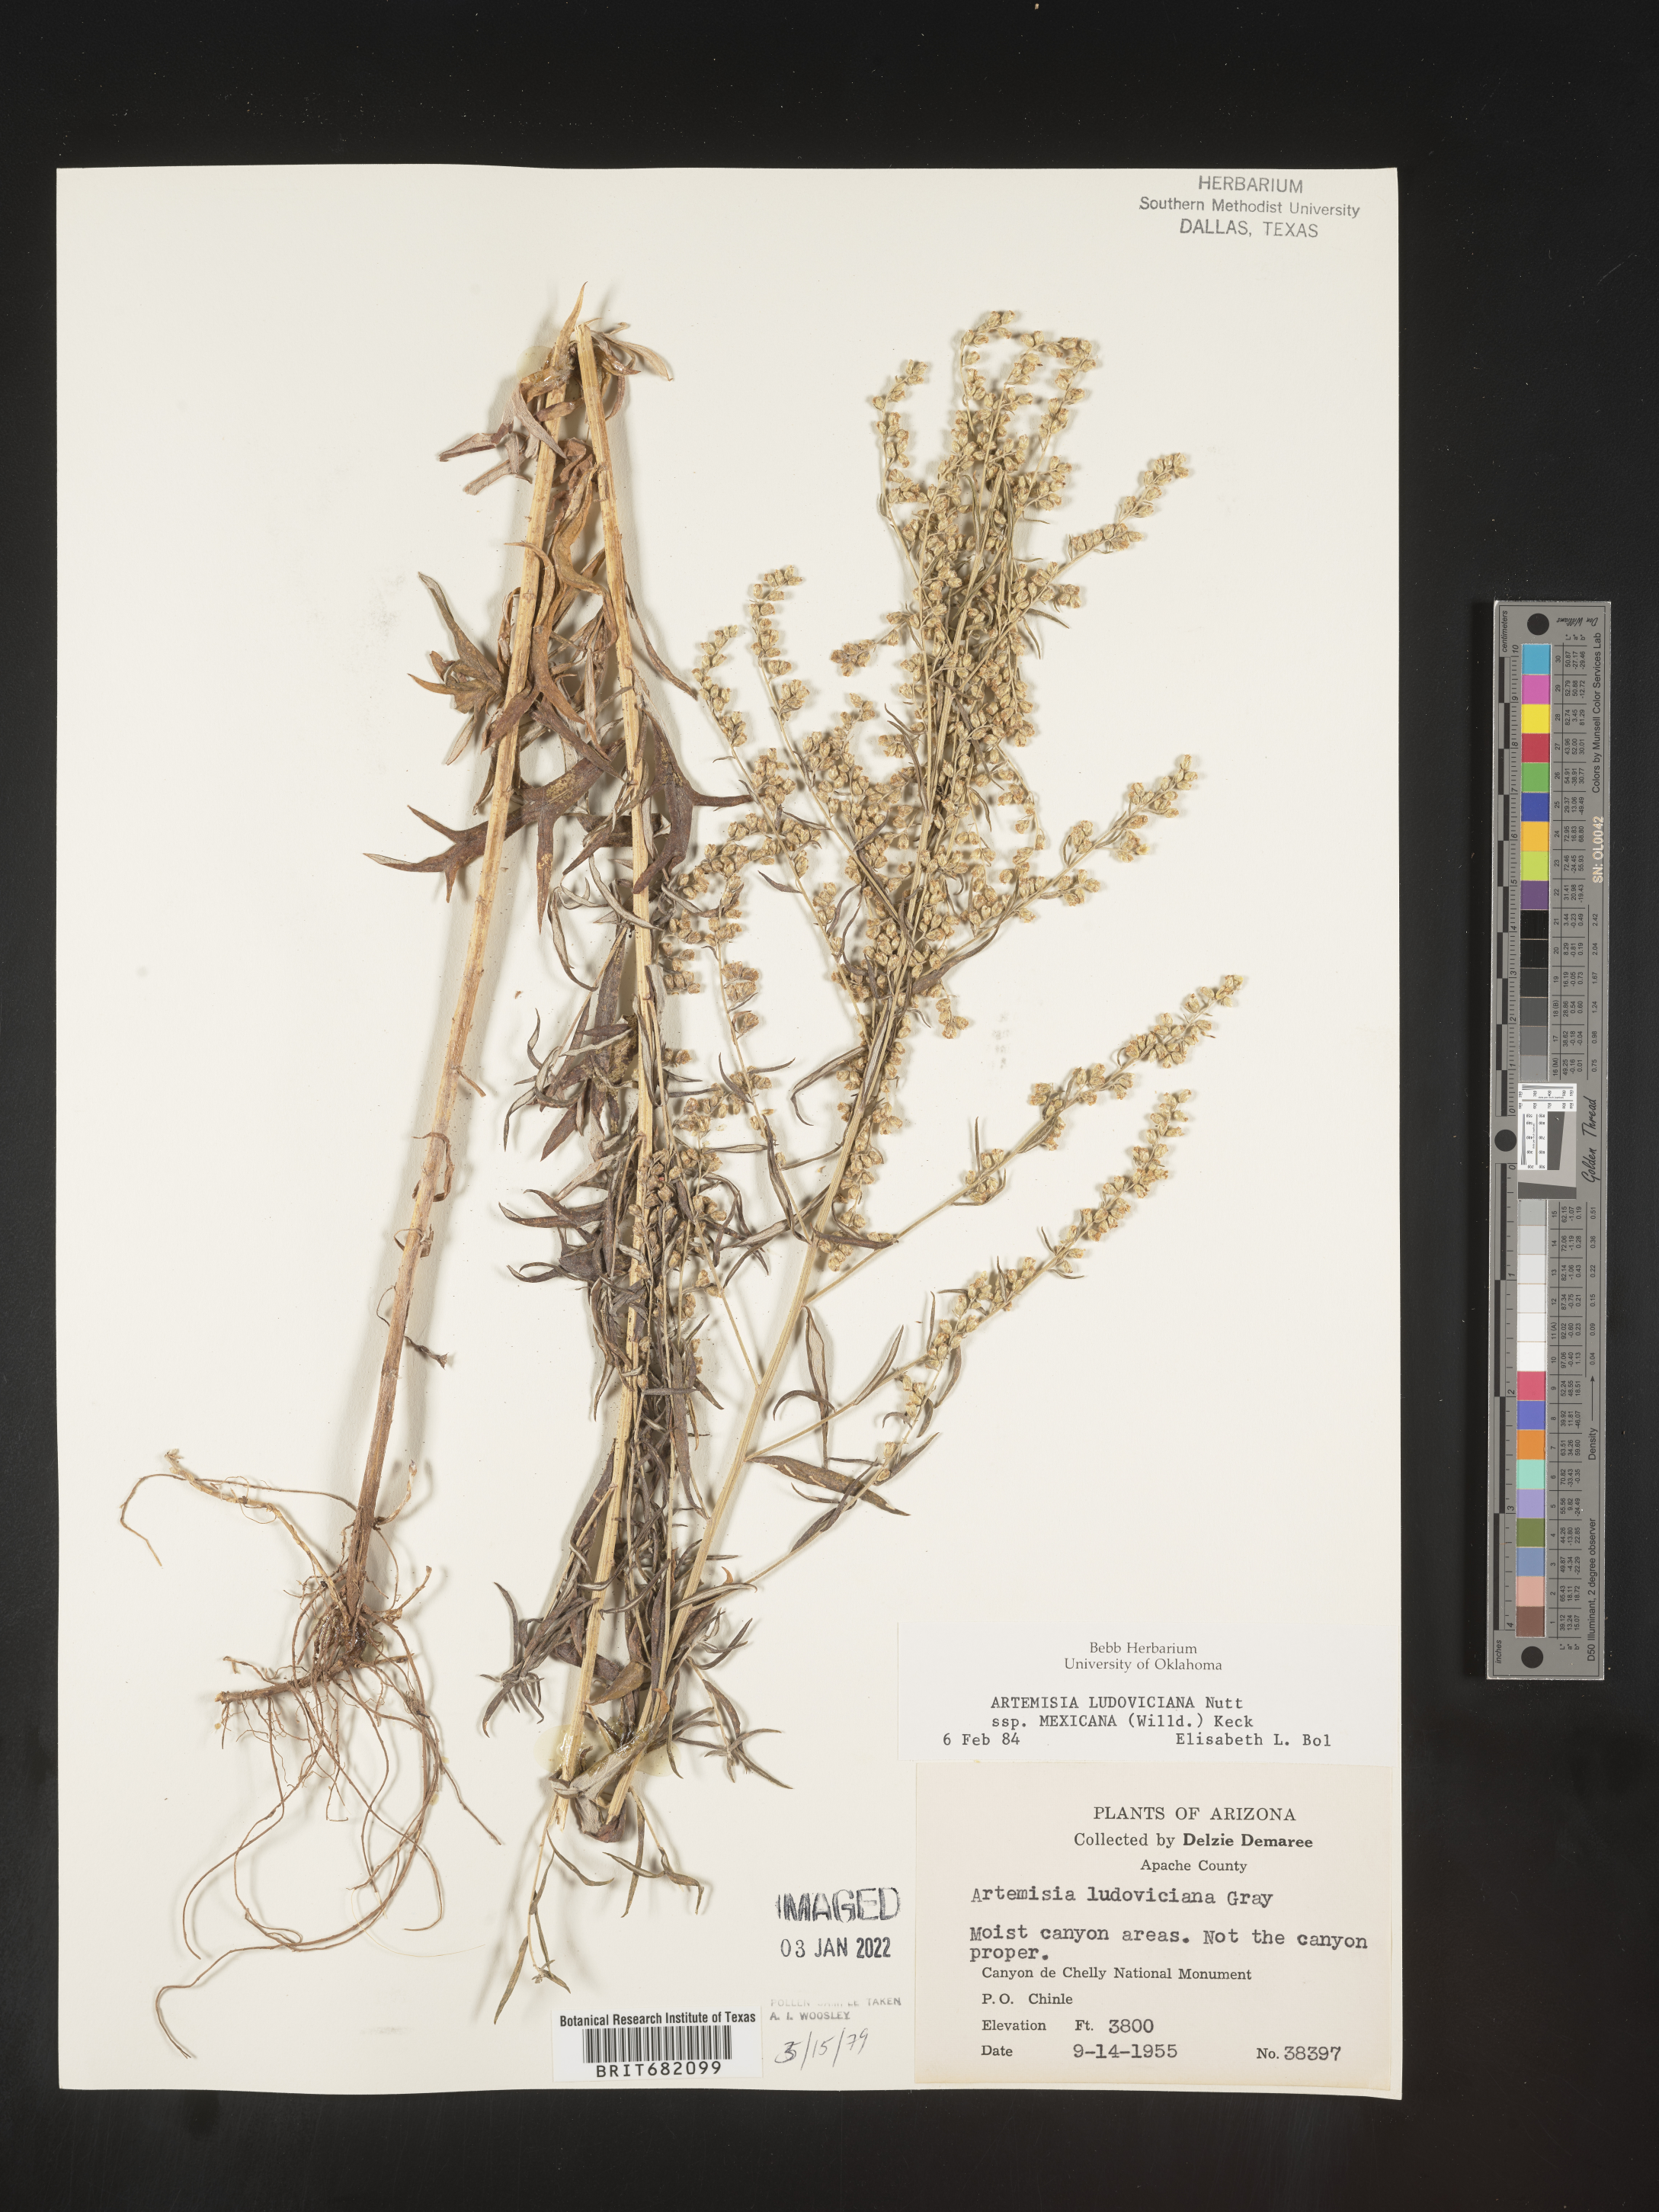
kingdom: Plantae
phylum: Tracheophyta
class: Magnoliopsida
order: Asterales
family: Asteraceae
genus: Artemisia
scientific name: Artemisia ludoviciana
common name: Western mugwort
